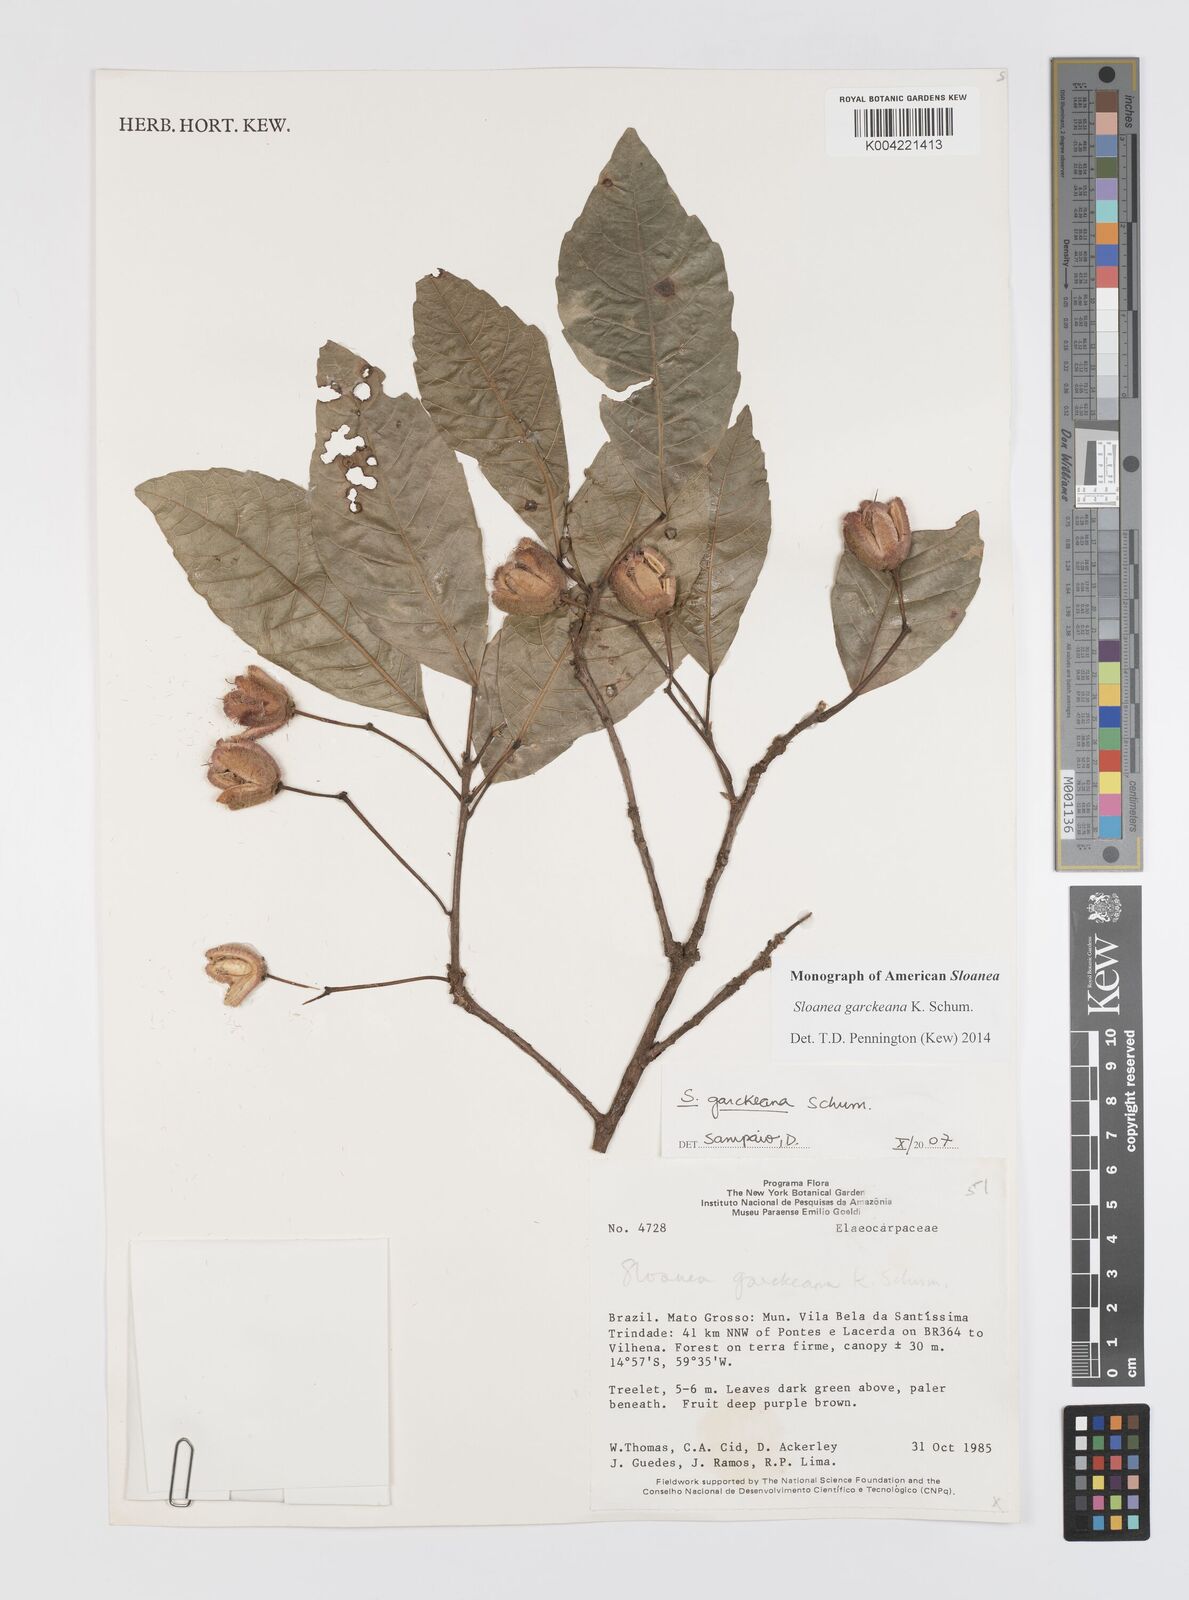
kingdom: Plantae
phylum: Tracheophyta
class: Magnoliopsida
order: Oxalidales
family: Elaeocarpaceae
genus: Sloanea
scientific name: Sloanea garckeana
